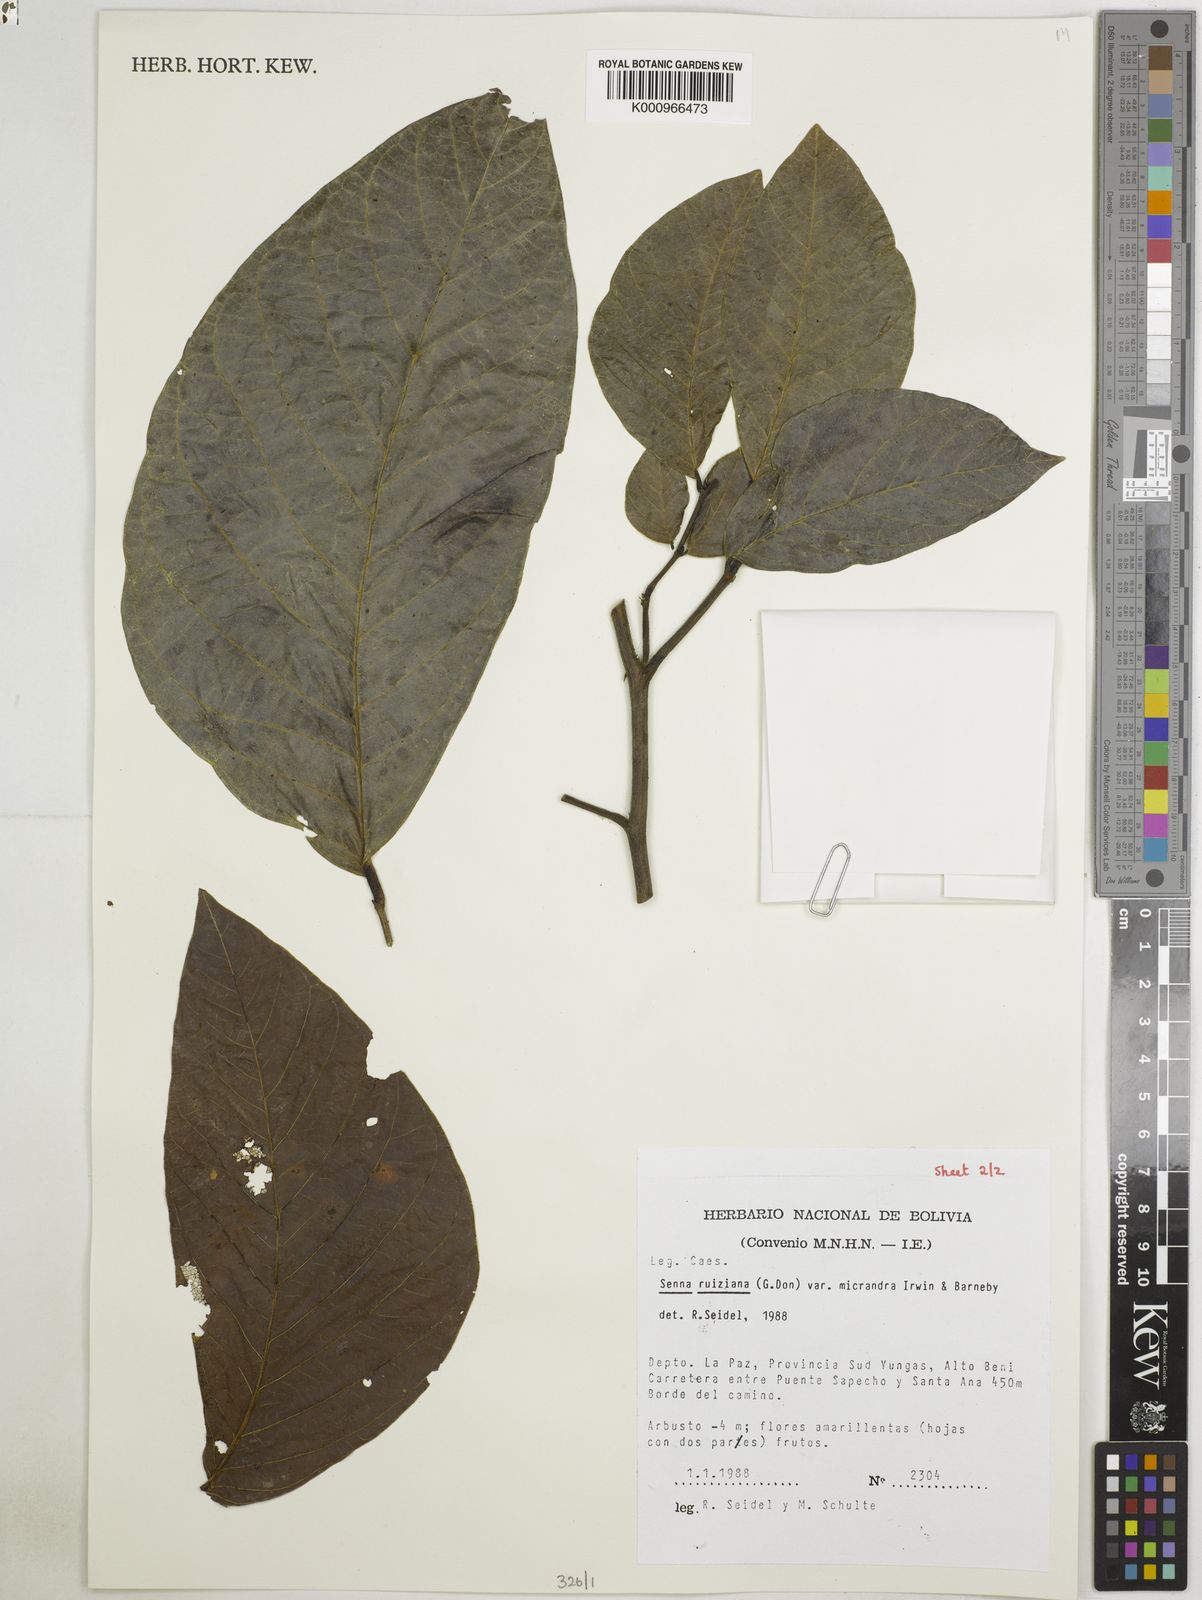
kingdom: Plantae
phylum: Tracheophyta
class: Magnoliopsida
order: Fabales
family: Fabaceae
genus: Senna
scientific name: Senna ruiziana
